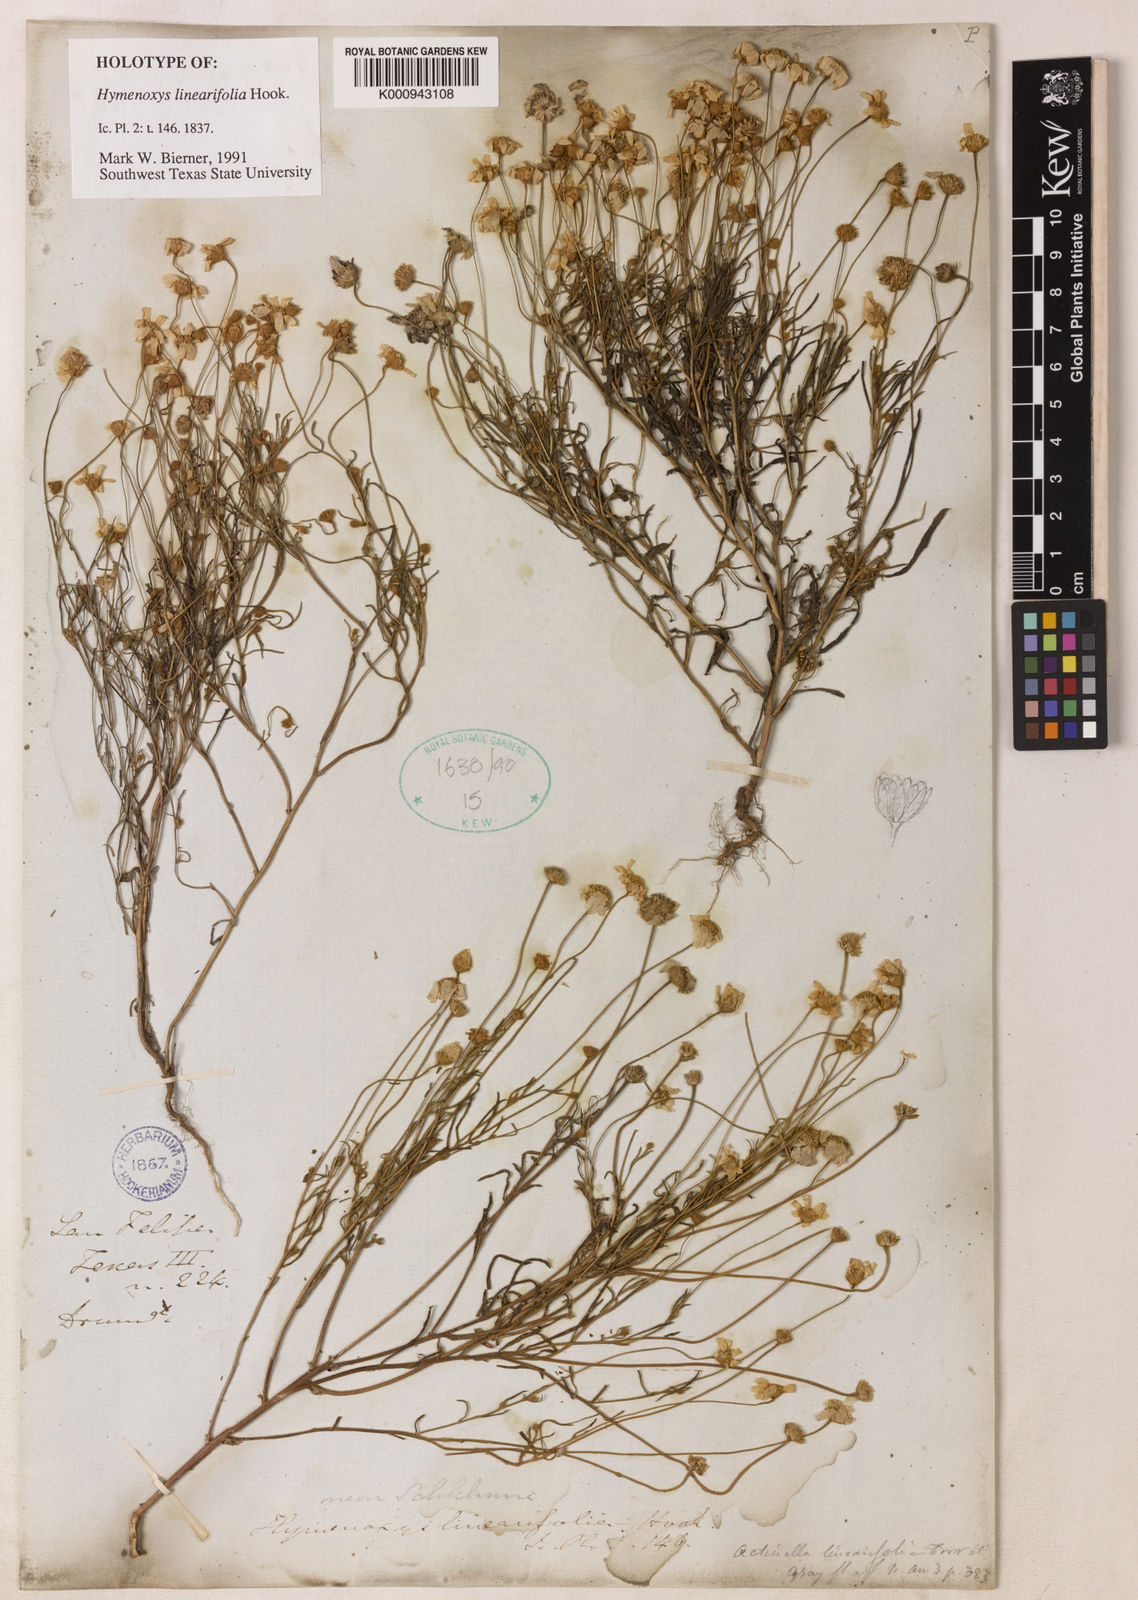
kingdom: Plantae
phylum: Tracheophyta
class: Magnoliopsida
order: Asterales
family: Asteraceae
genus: Tetraneuris
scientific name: Tetraneuris linearifolia
